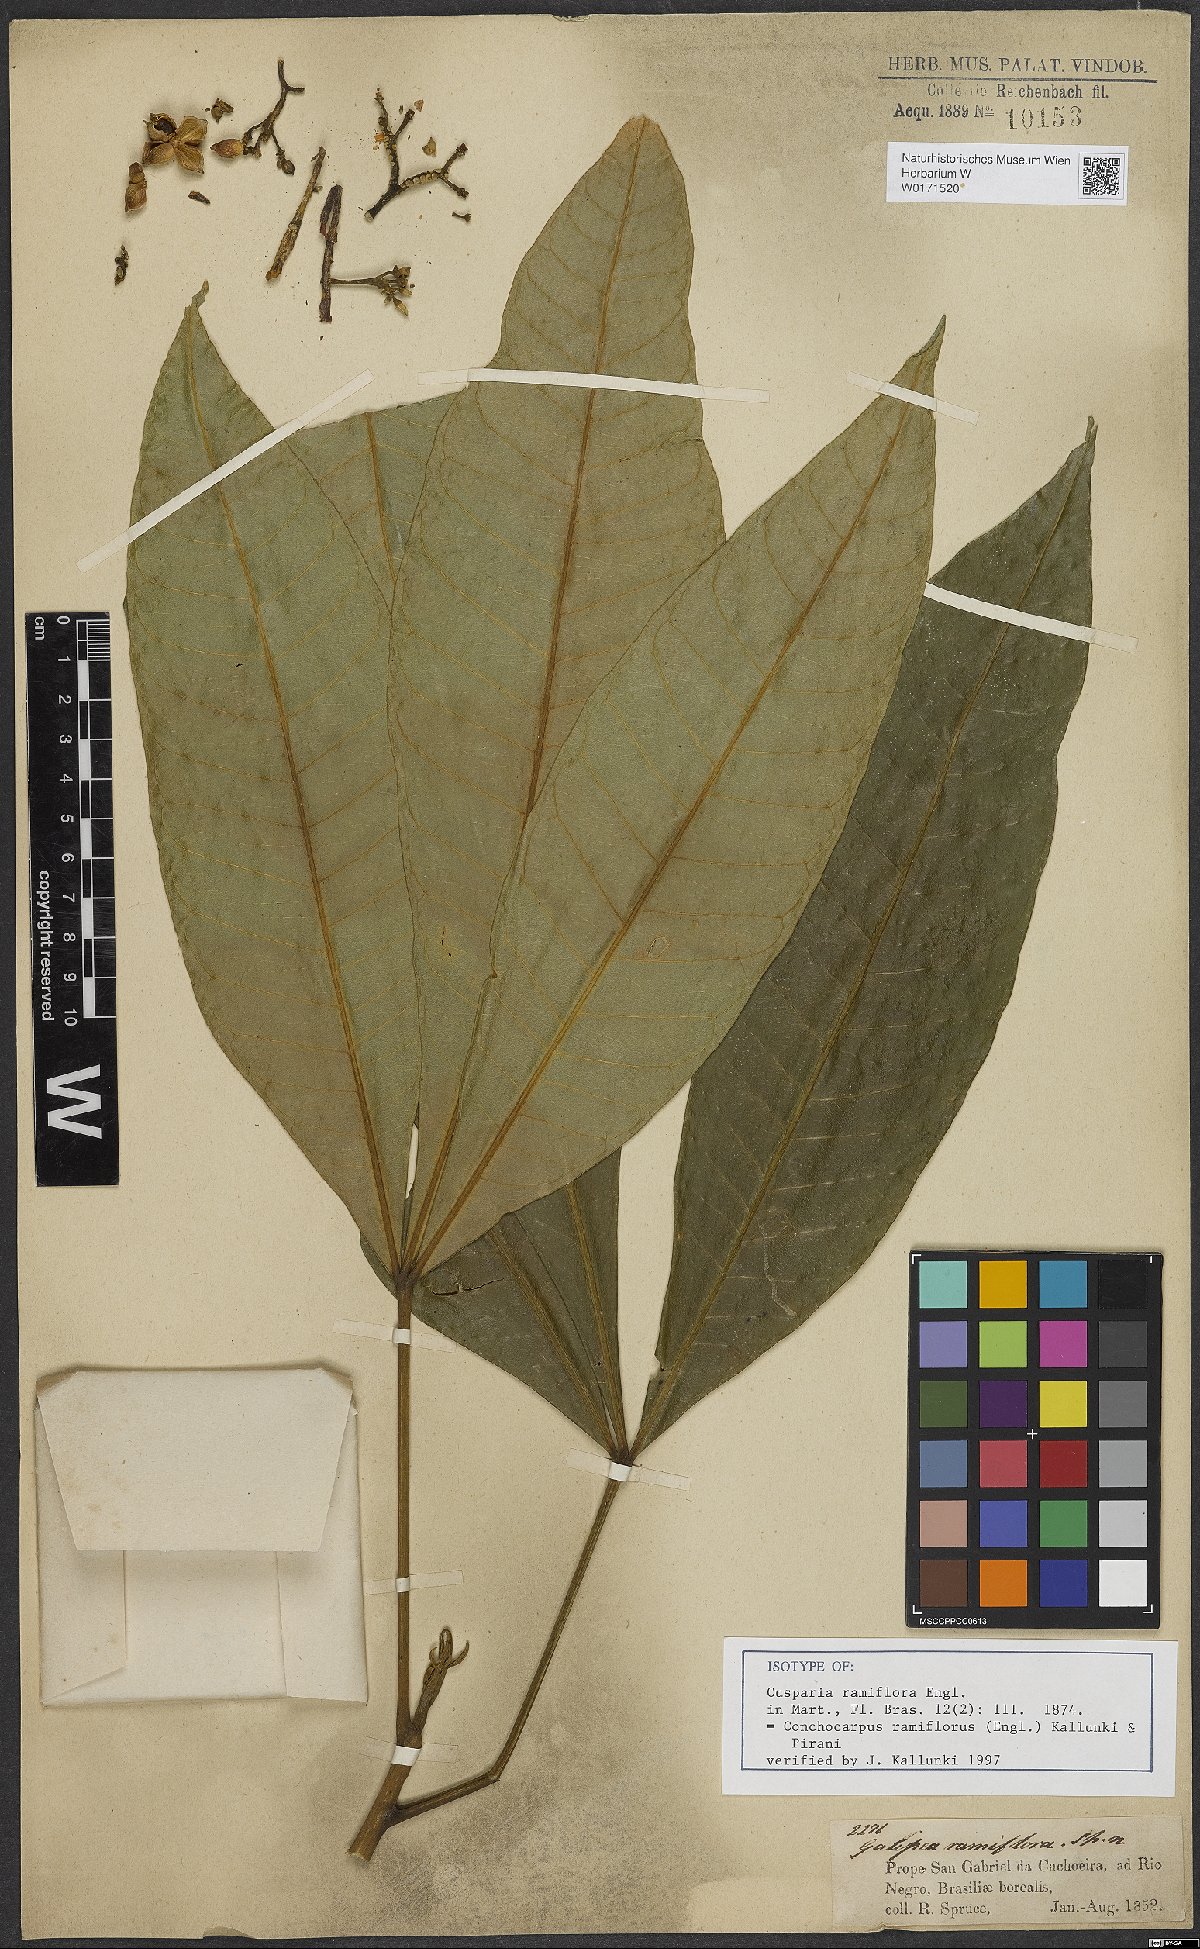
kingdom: Plantae
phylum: Tracheophyta
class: Magnoliopsida
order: Sapindales
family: Rutaceae
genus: Conchocarpus
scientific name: Conchocarpus ramiflorus
